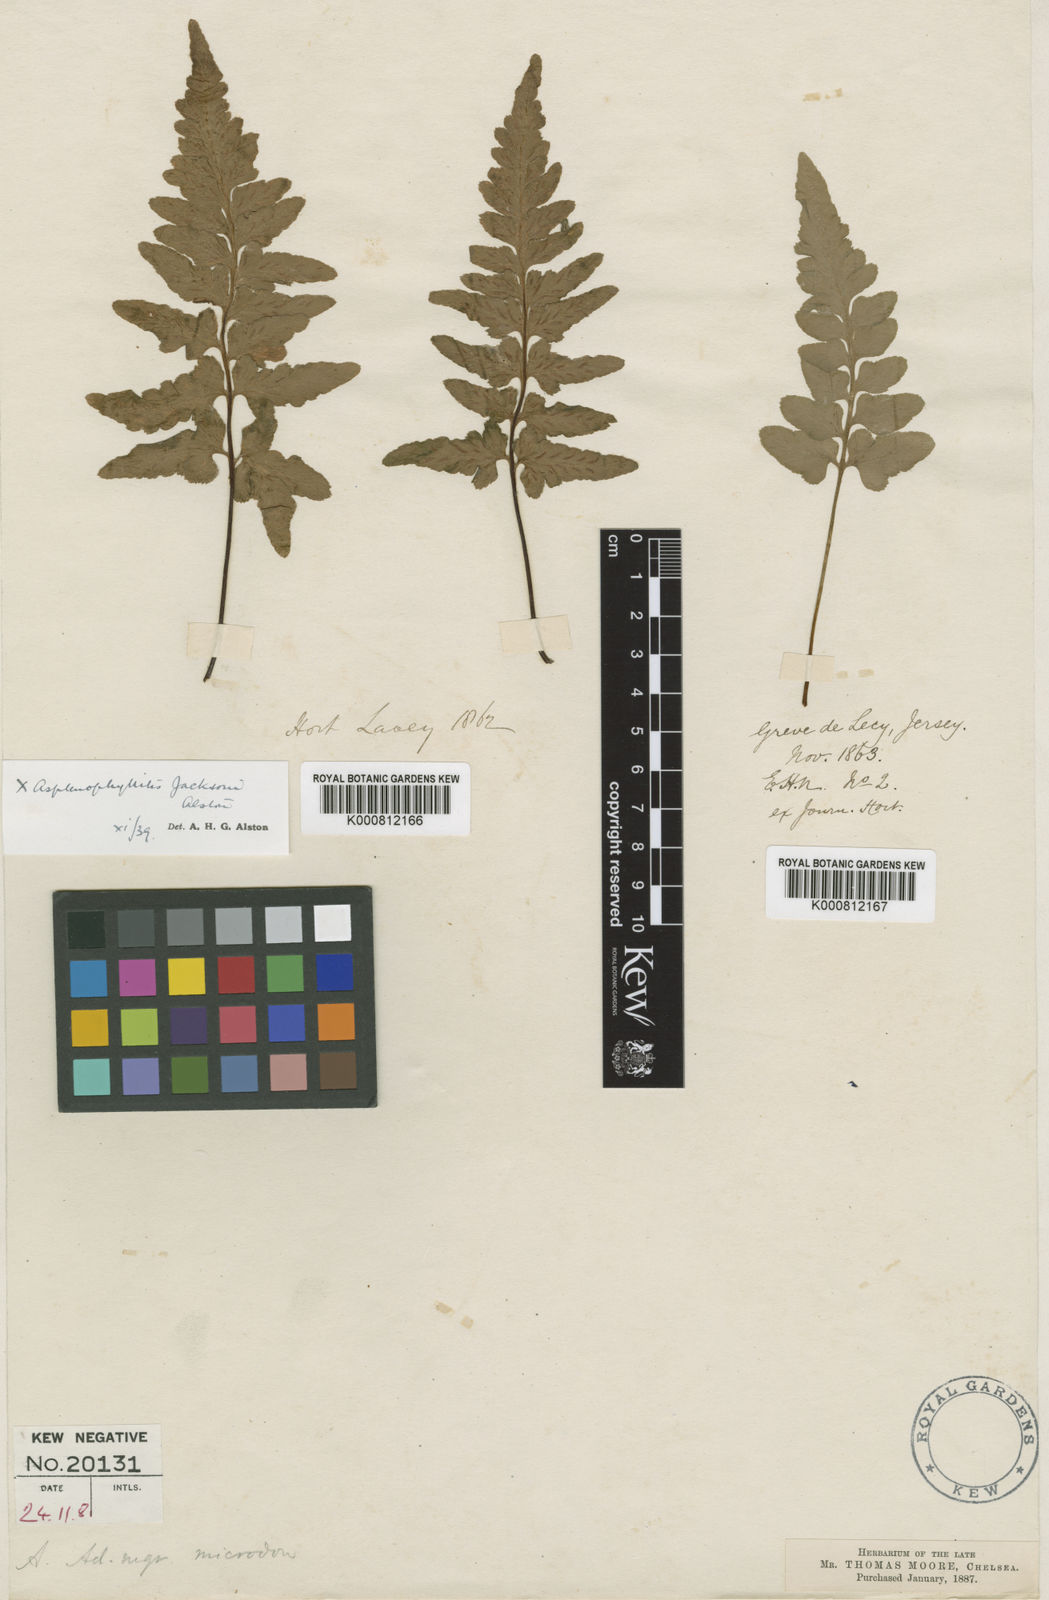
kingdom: Plantae
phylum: Tracheophyta
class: Polypodiopsida
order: Polypodiales
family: Aspleniaceae
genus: Asplenium
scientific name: Asplenium jacksonii
